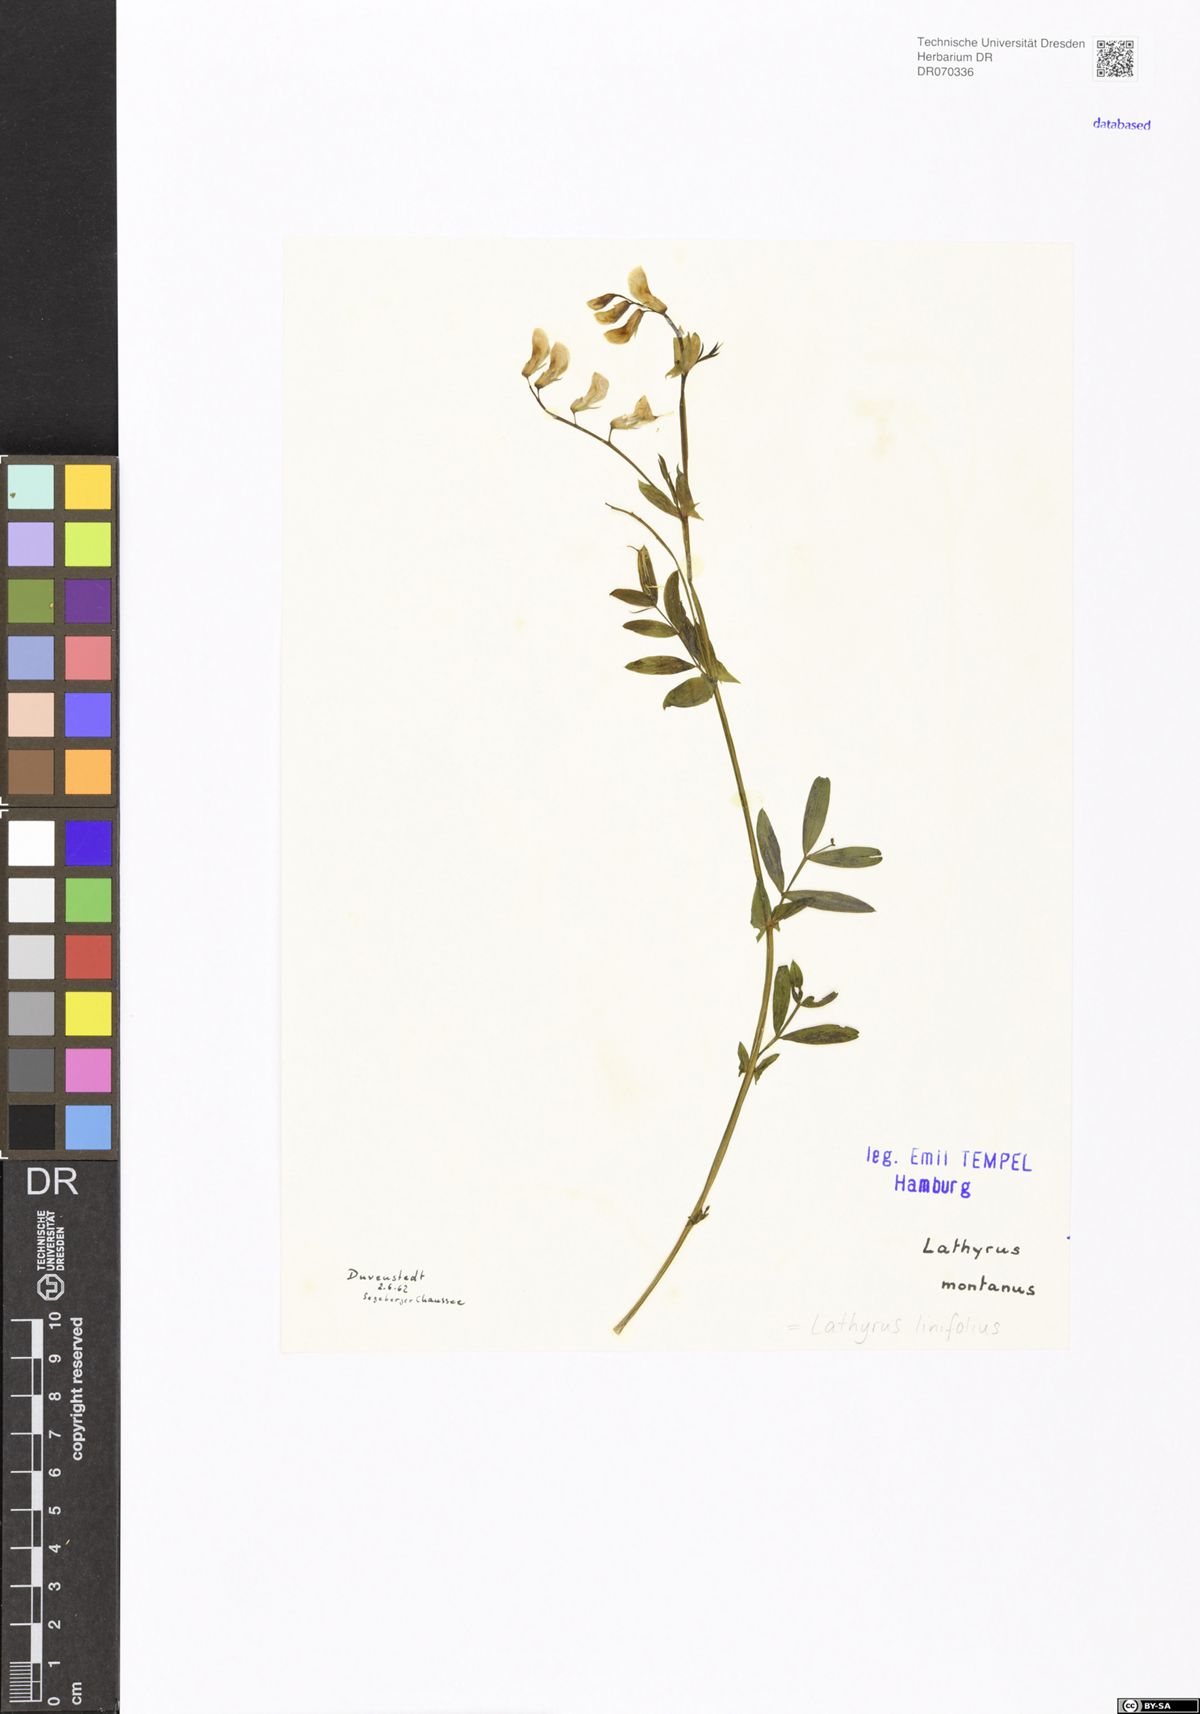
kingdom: Plantae
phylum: Tracheophyta
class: Magnoliopsida
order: Fabales
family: Fabaceae
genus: Lathyrus
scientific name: Lathyrus linifolius
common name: Bitter-vetch
